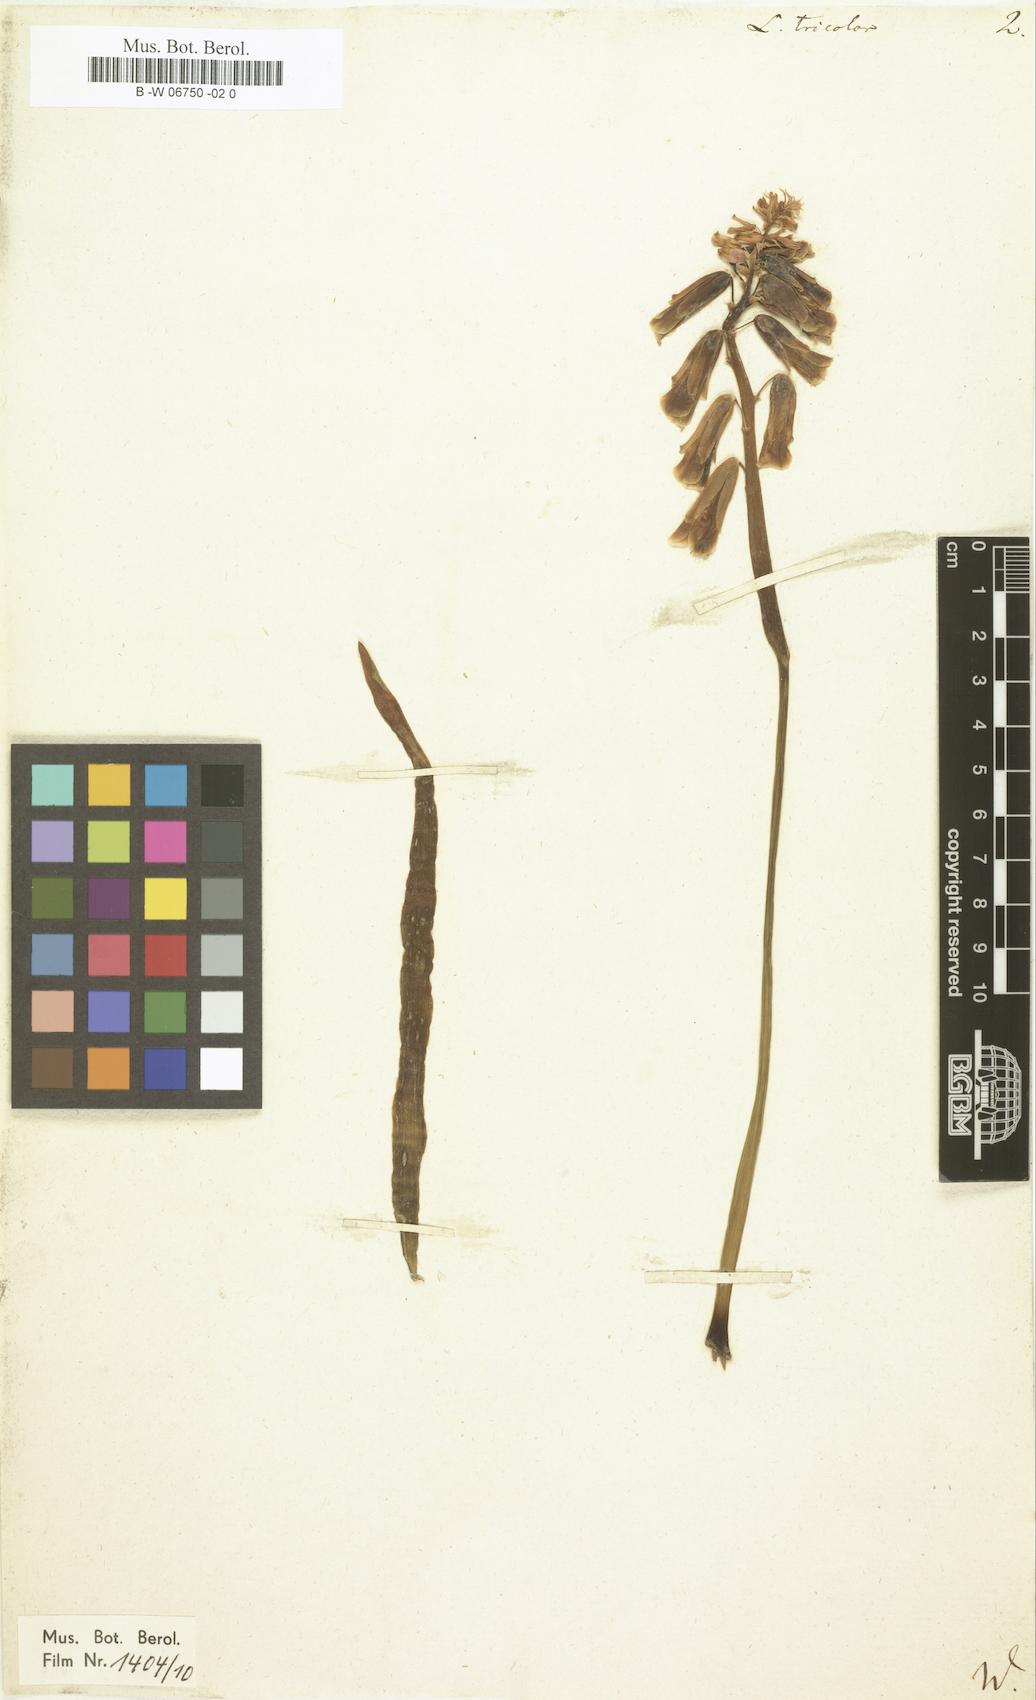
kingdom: Plantae
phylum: Tracheophyta
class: Liliopsida
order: Asparagales
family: Asparagaceae
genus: Lachenalia
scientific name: Lachenalia aloides
